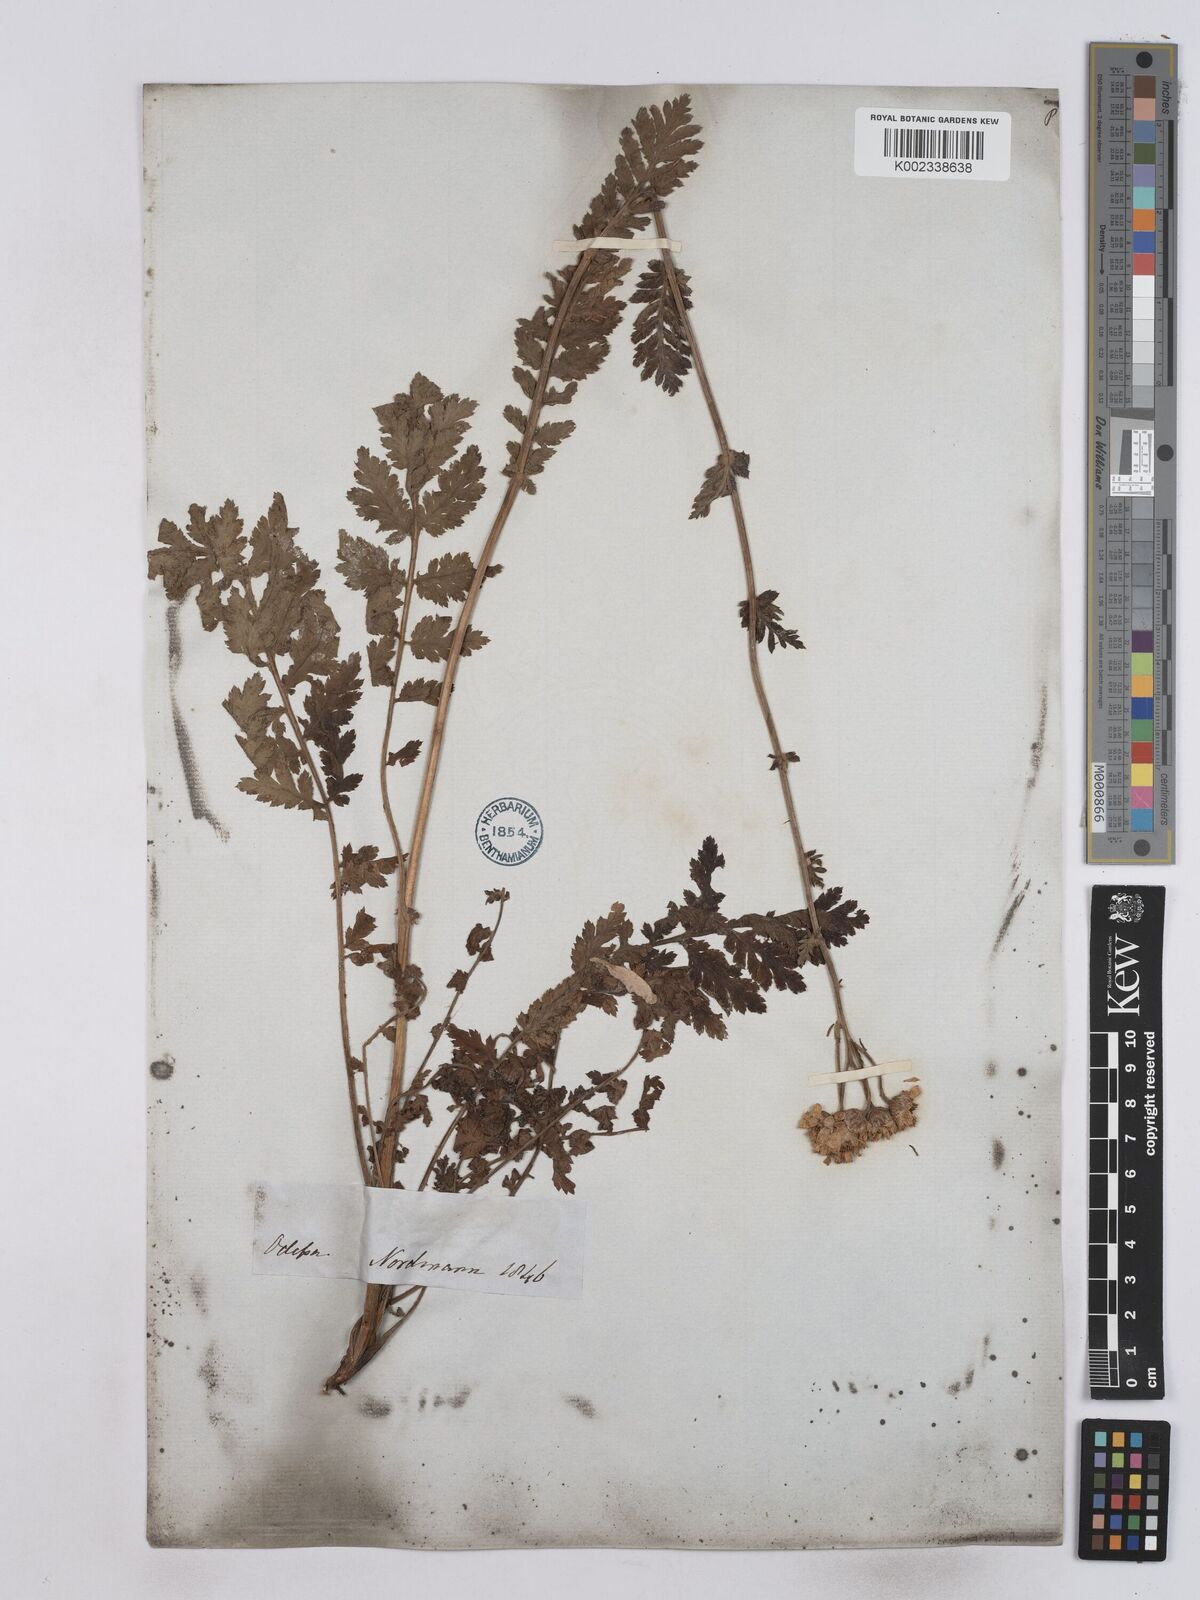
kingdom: Plantae
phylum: Tracheophyta
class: Magnoliopsida
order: Asterales
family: Asteraceae
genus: Tanacetum
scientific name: Tanacetum corymbosum
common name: Scentless feverfew
